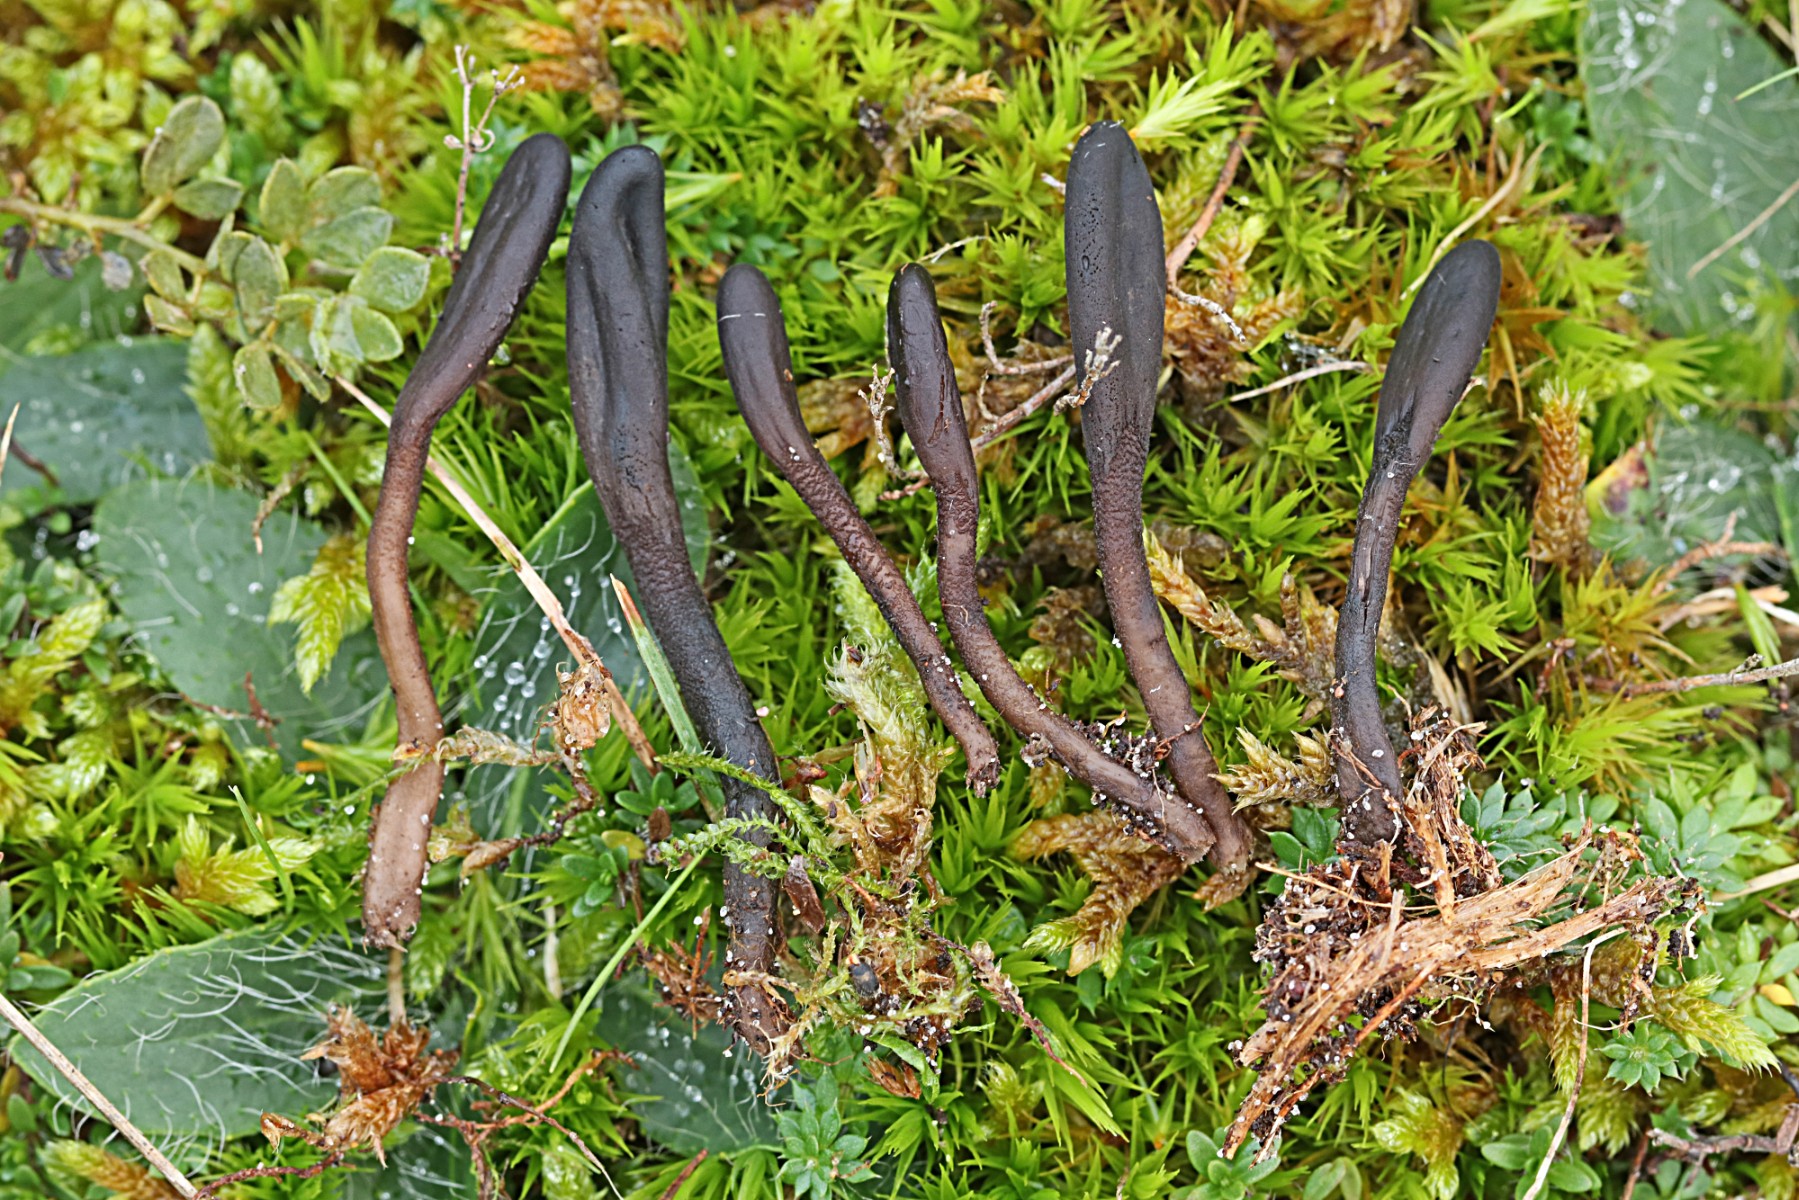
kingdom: Fungi
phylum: Ascomycota
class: Geoglossomycetes
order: Geoglossales
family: Geoglossaceae
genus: Hemileucoglossum
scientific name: Hemileucoglossum elongatum
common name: småsporet jordtunge
